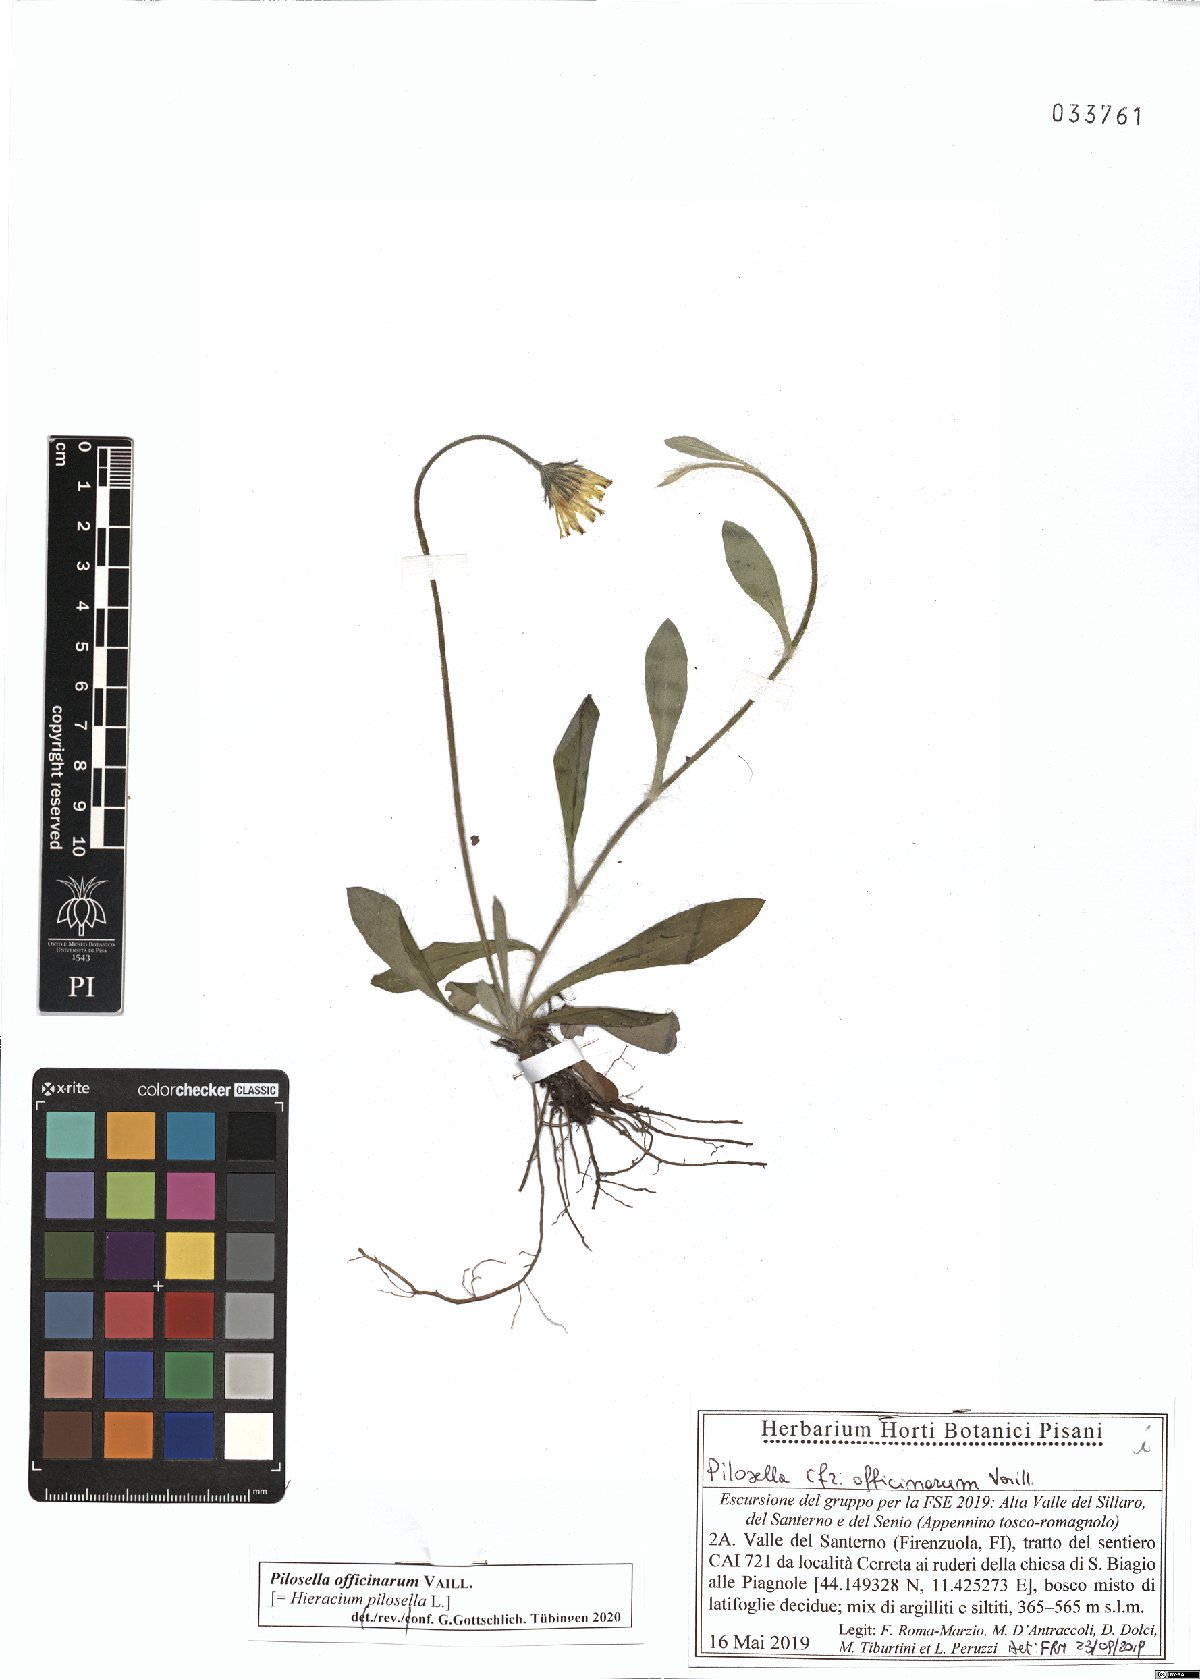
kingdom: Plantae
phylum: Tracheophyta
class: Magnoliopsida
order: Asterales
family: Asteraceae
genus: Pilosella
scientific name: Pilosella officinarum
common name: Mouse-ear hawkweed
